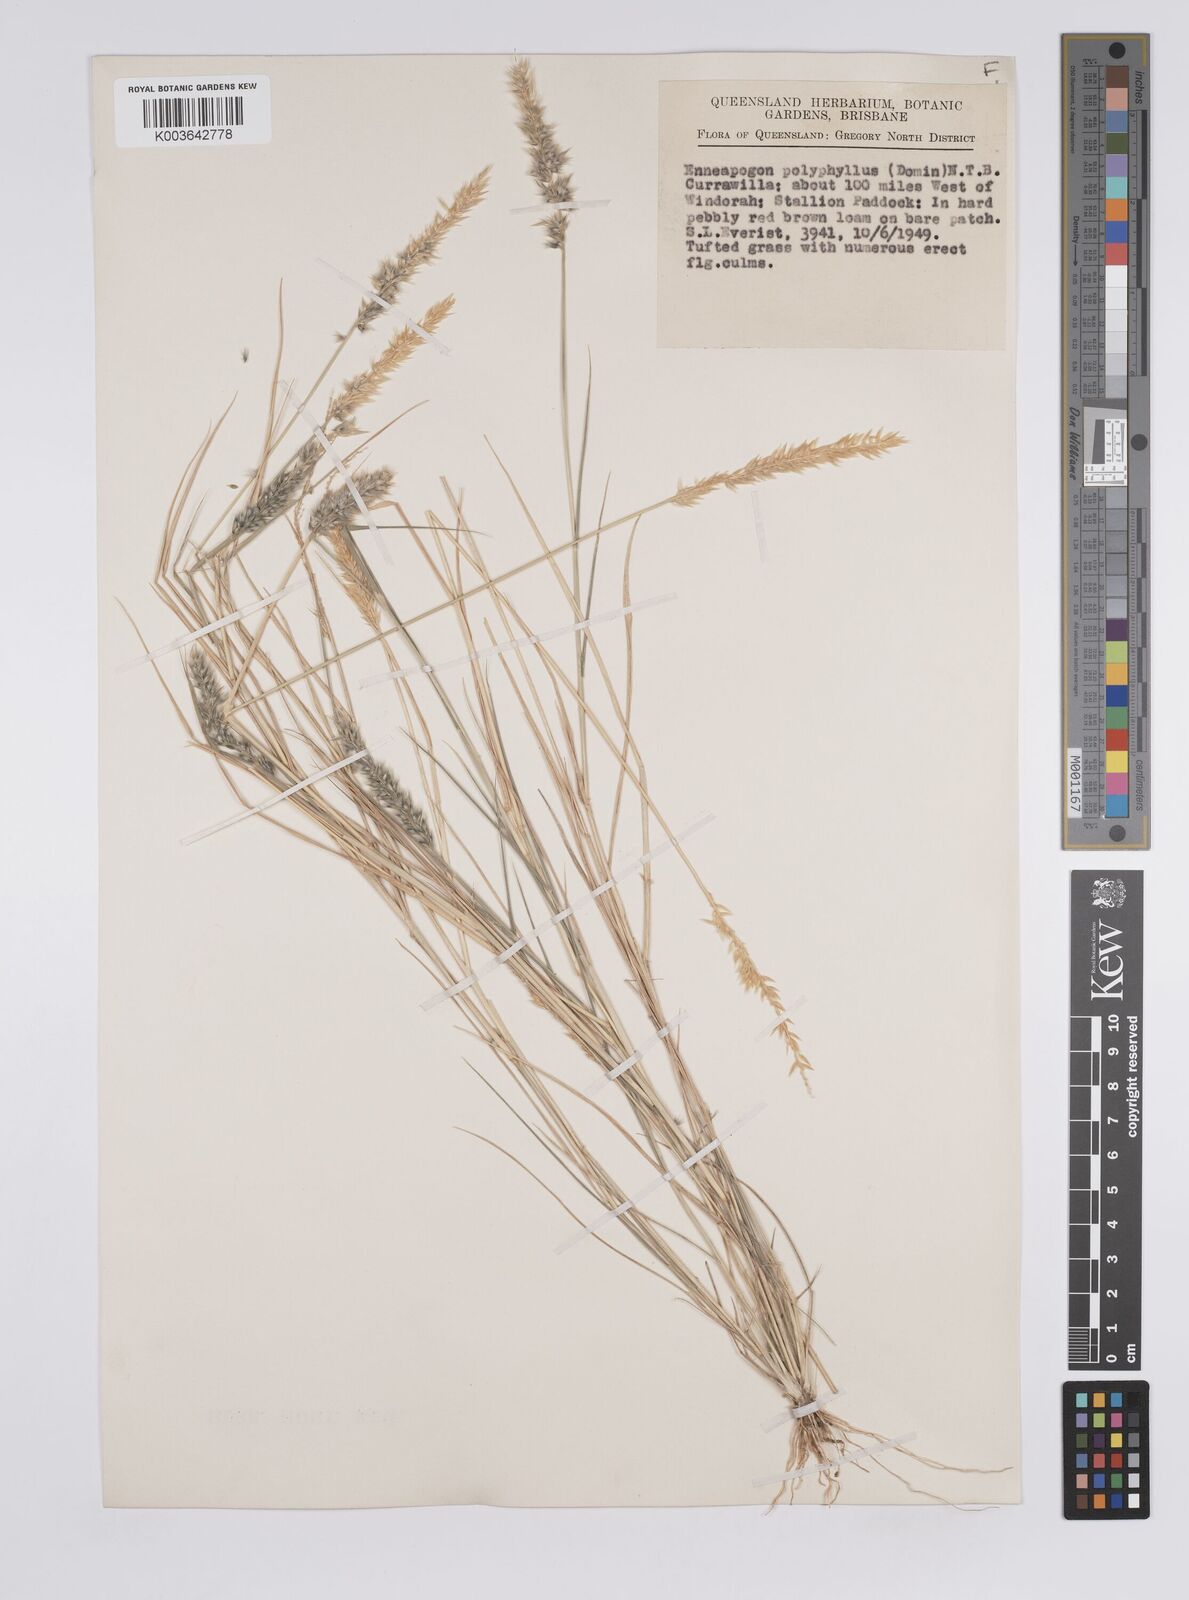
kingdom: Plantae
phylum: Tracheophyta
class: Liliopsida
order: Poales
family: Poaceae
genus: Enneapogon
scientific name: Enneapogon polyphyllus
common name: Leafy nineawn
